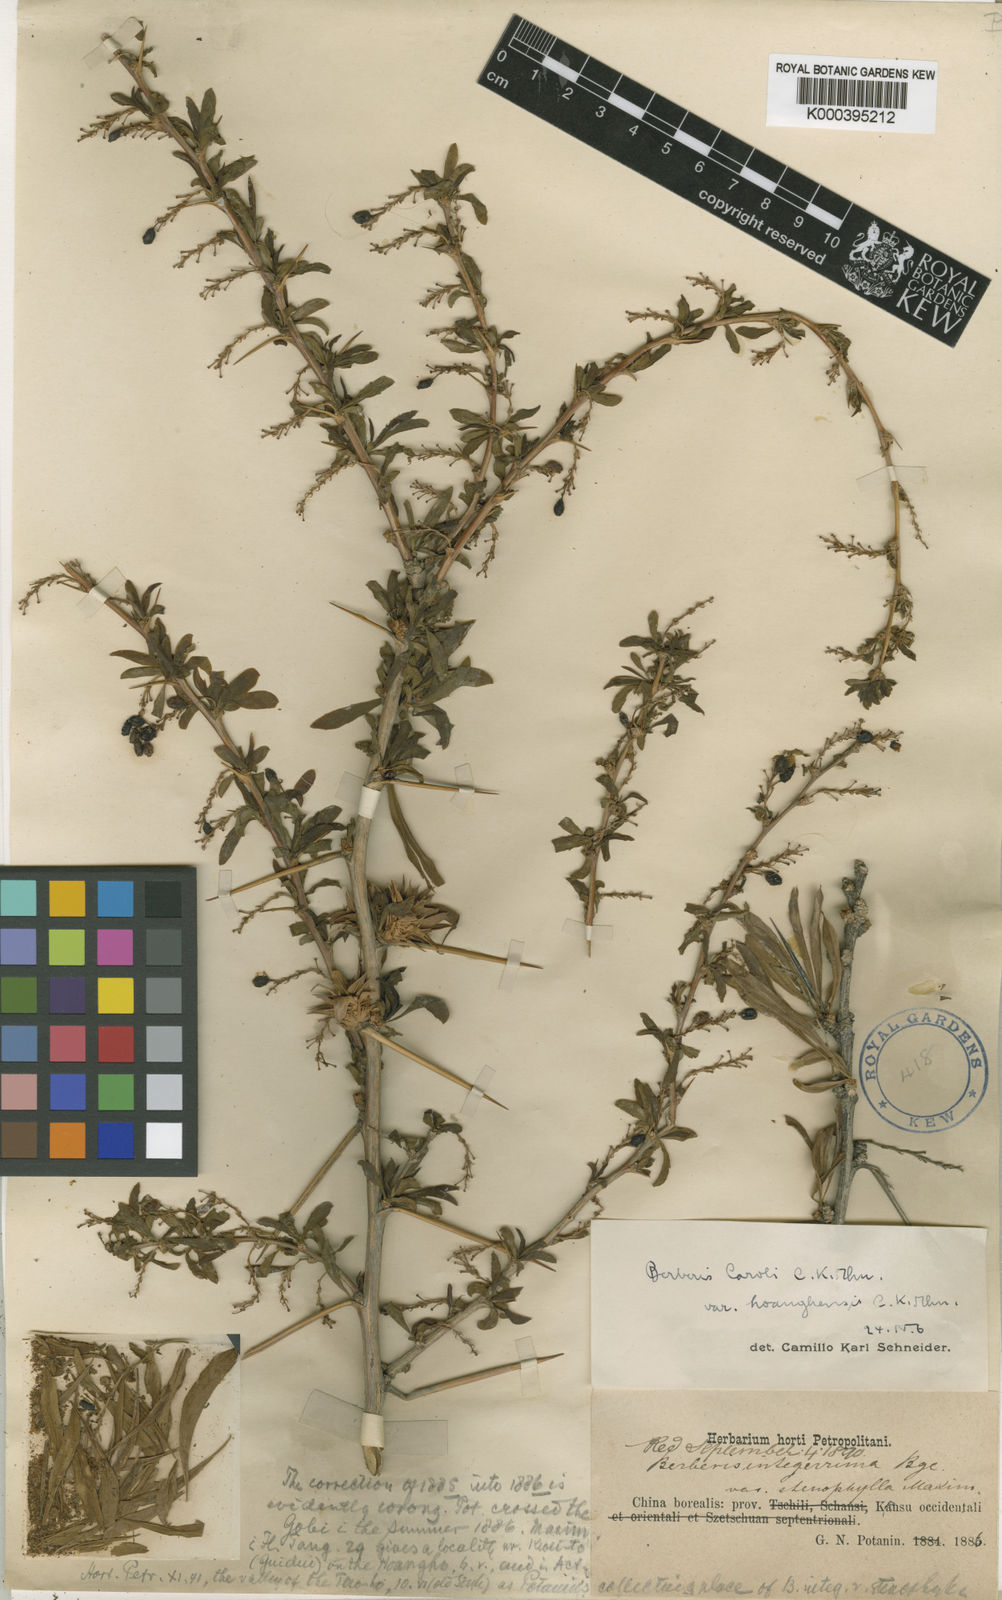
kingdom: Plantae
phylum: Tracheophyta
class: Magnoliopsida
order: Ranunculales
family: Berberidaceae
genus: Berberis
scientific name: Berberis caroli
